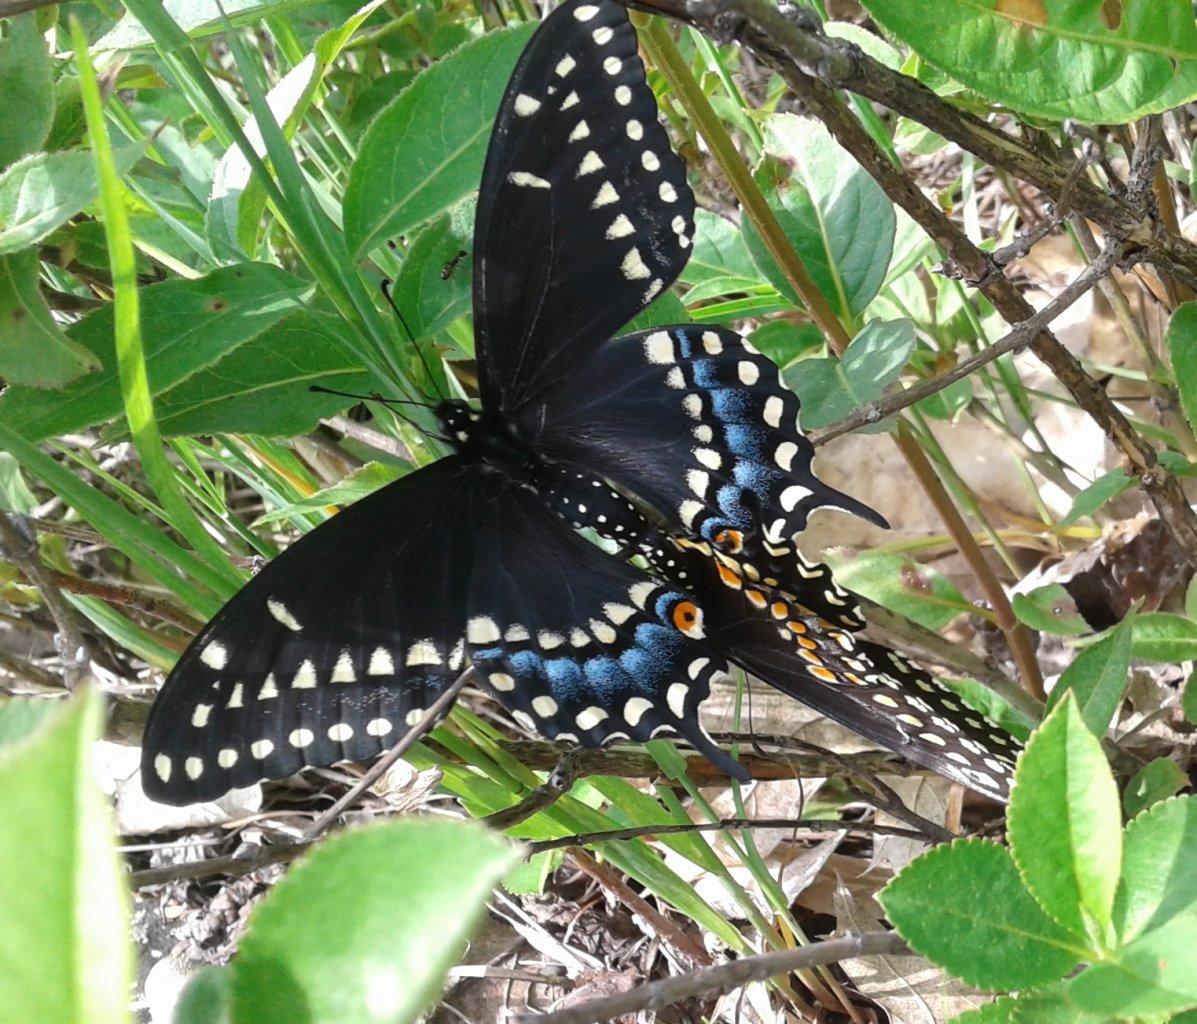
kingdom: Animalia
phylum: Arthropoda
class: Insecta
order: Lepidoptera
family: Papilionidae
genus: Papilio
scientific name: Papilio polyxenes
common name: Black Swallowtail
